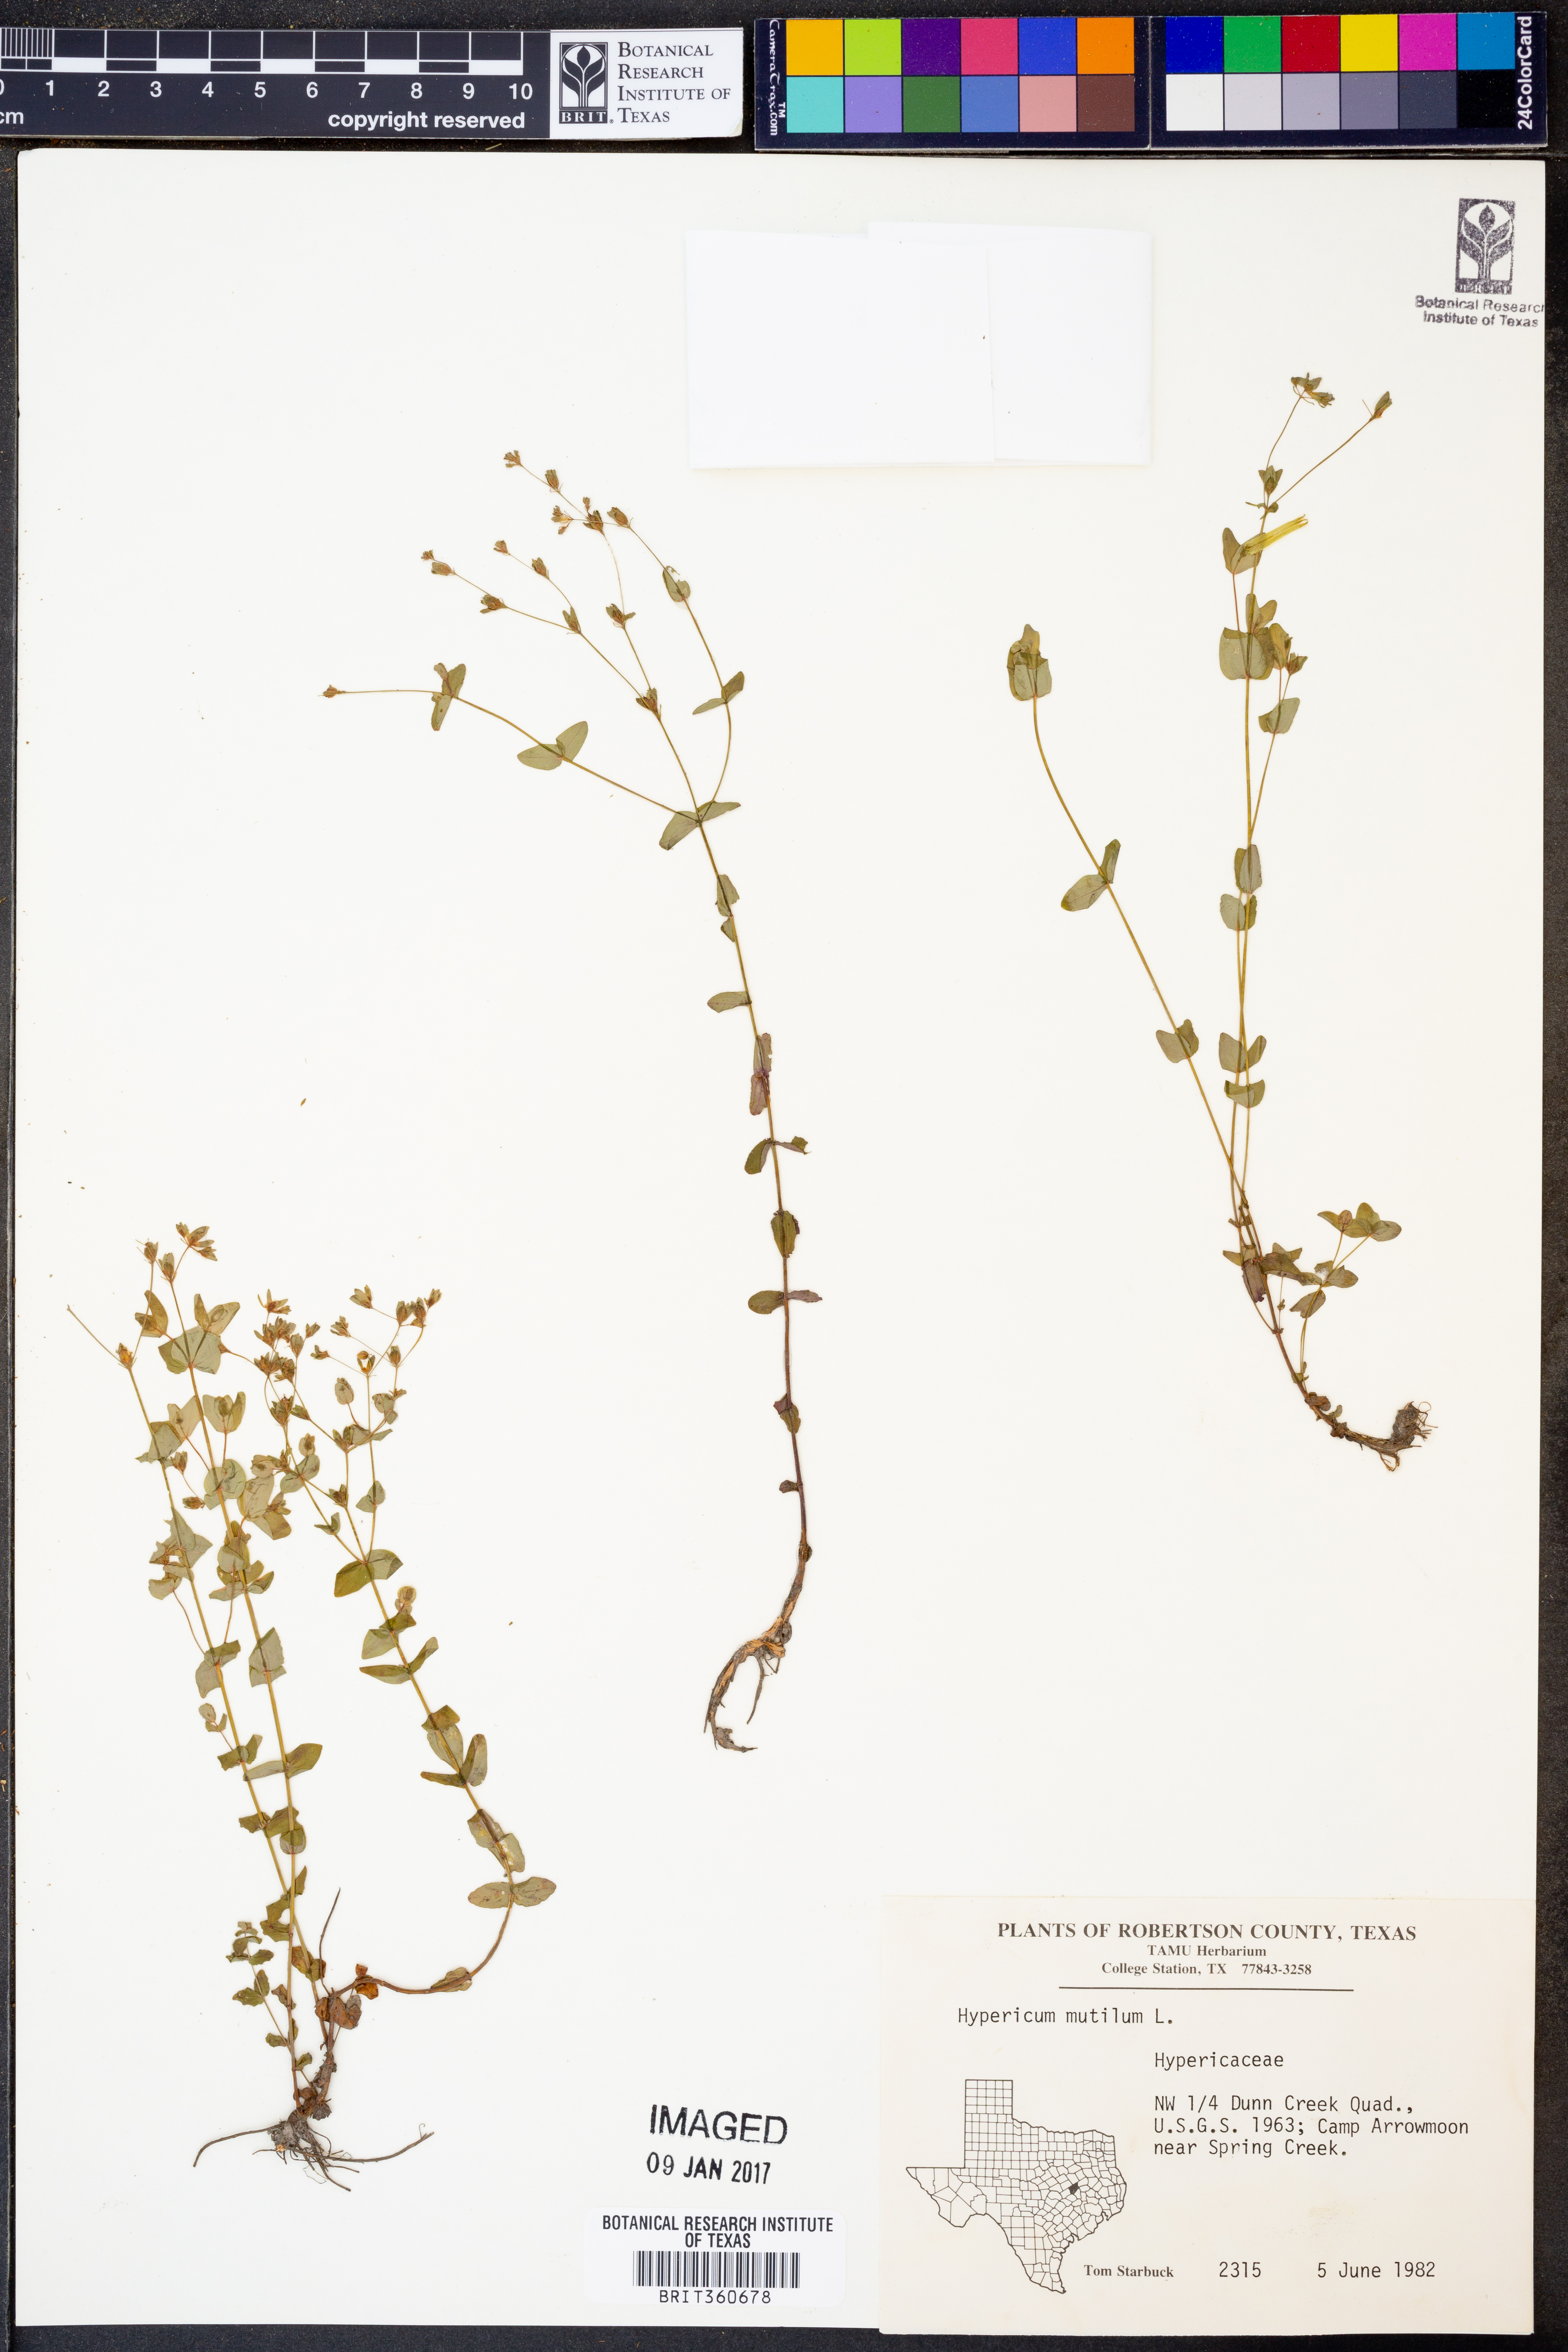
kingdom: Plantae
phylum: Tracheophyta
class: Magnoliopsida
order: Malpighiales
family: Hypericaceae
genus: Hypericum
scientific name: Hypericum mutilum
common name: Dwarf st. john's-wort
